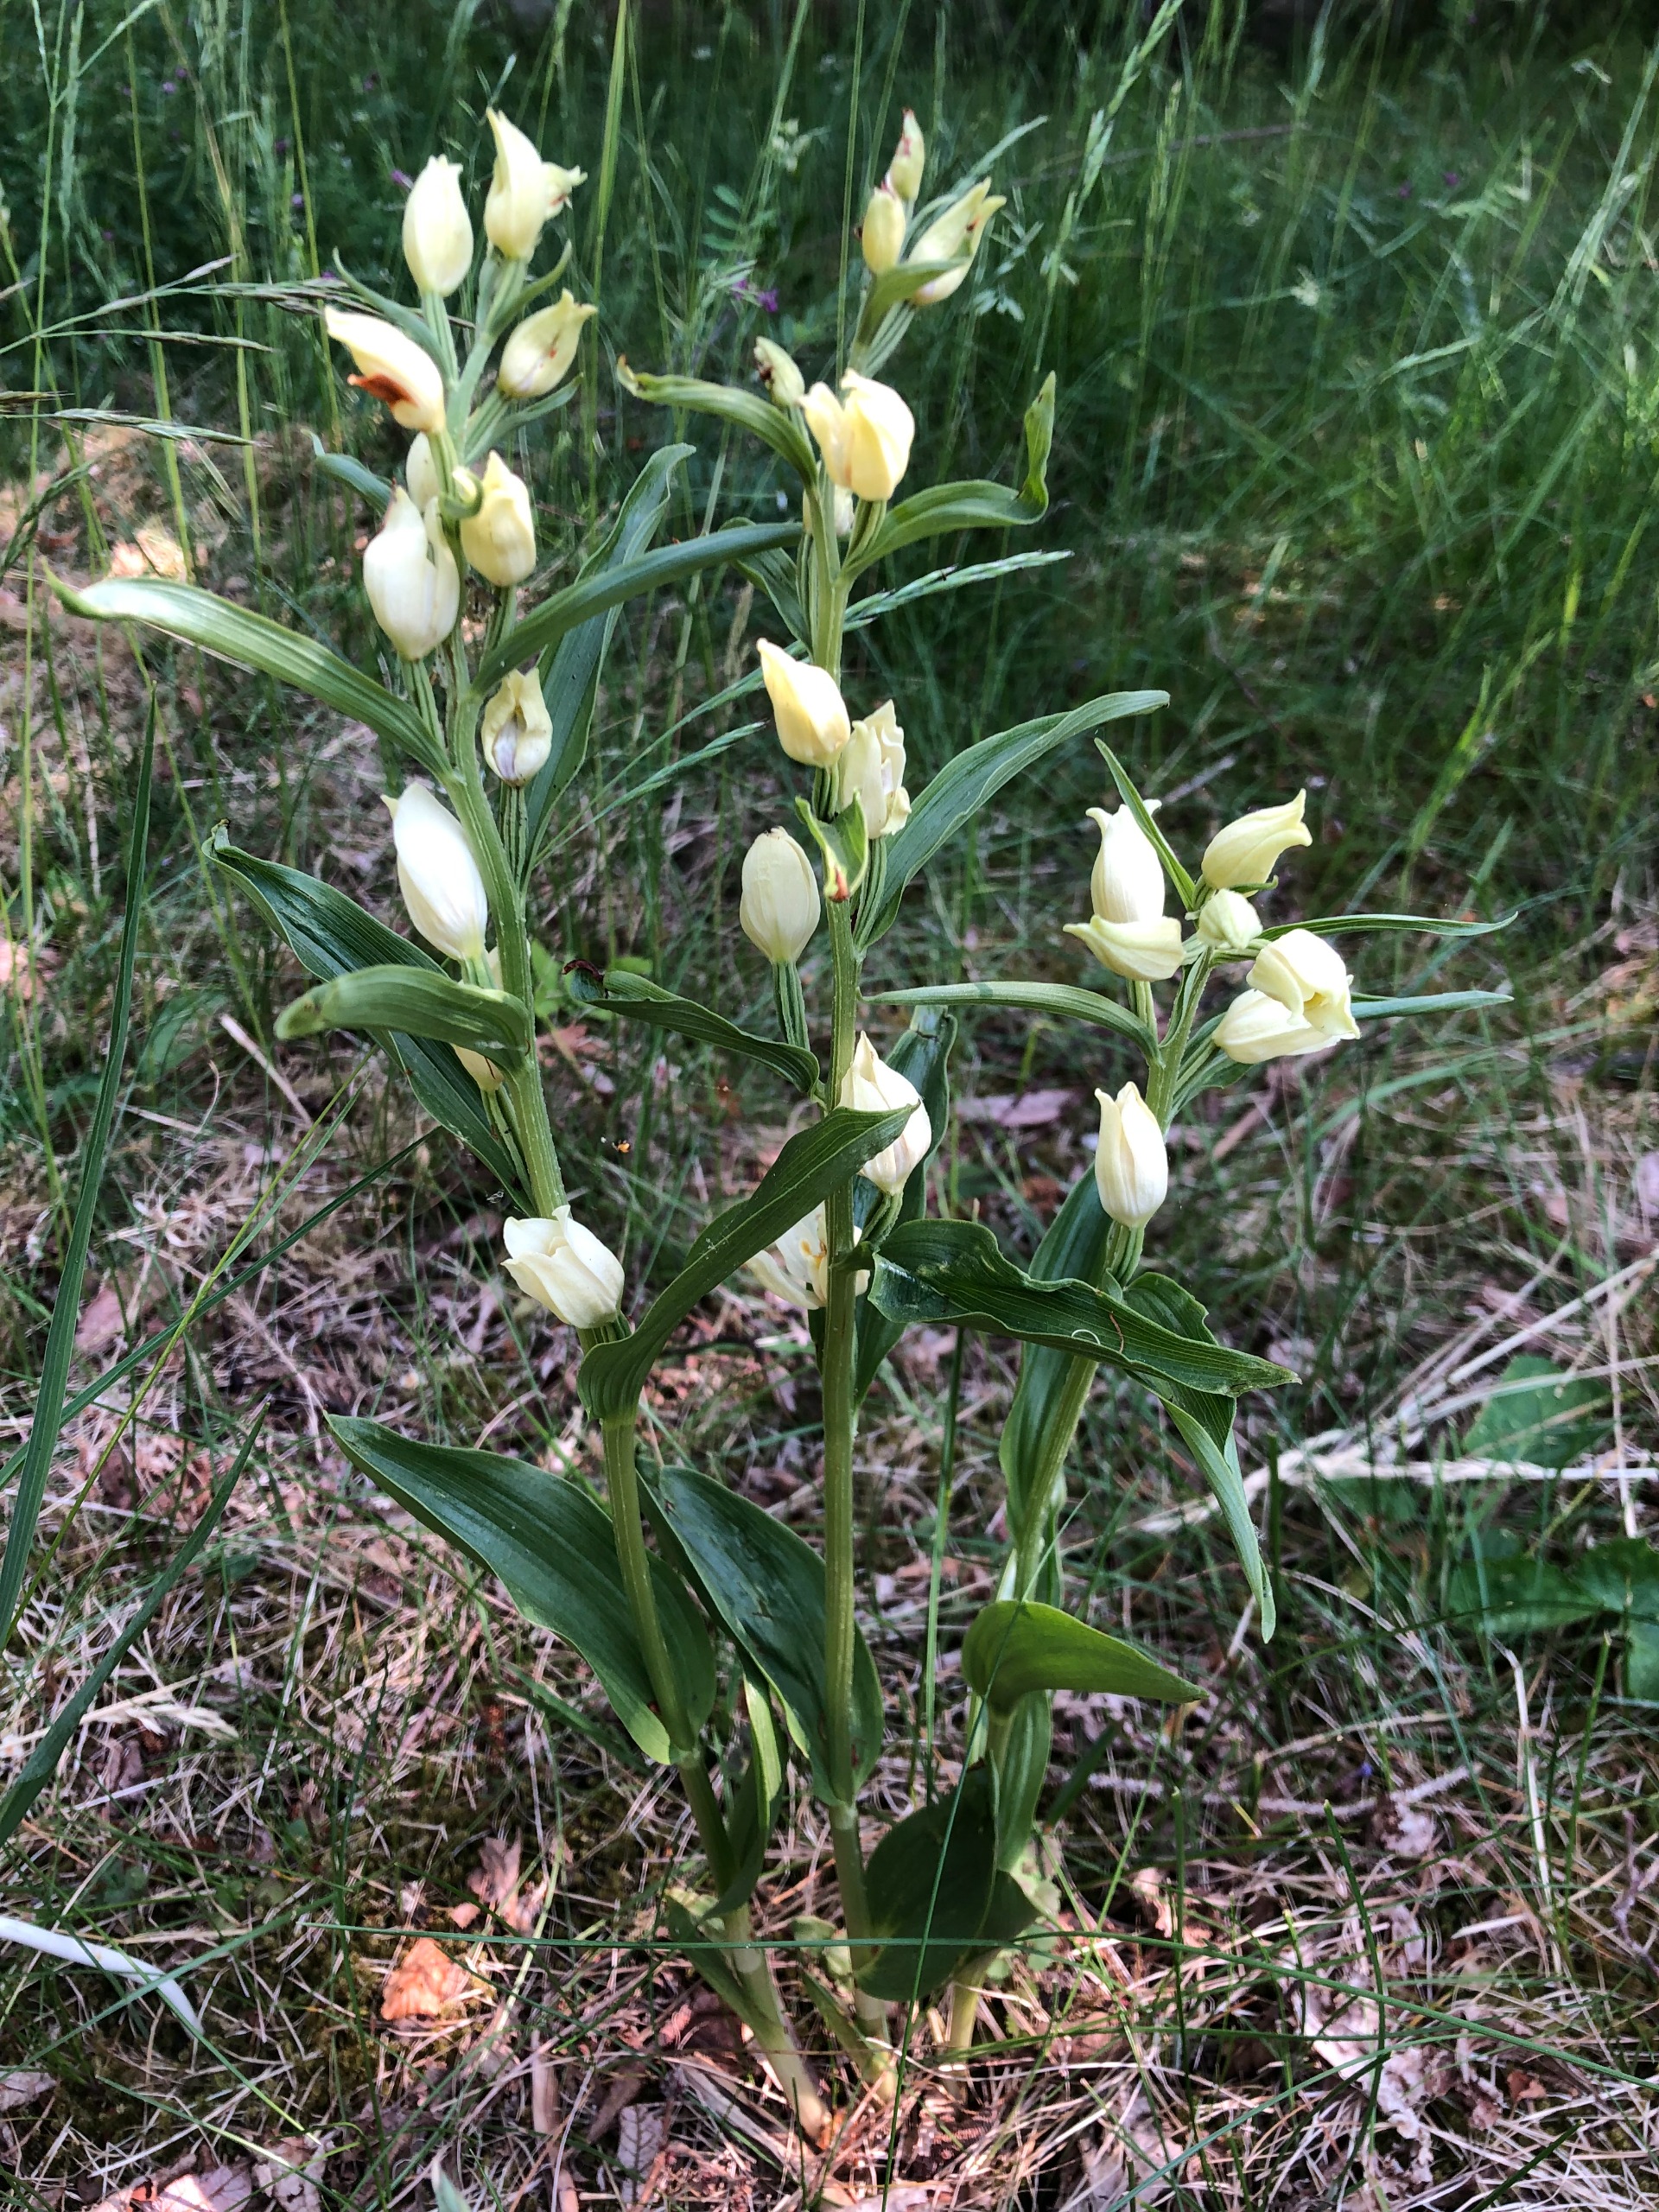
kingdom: Plantae
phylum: Tracheophyta
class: Liliopsida
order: Asparagales
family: Orchidaceae
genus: Cephalanthera
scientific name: Cephalanthera damasonium
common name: Hvidgul skovlilje
